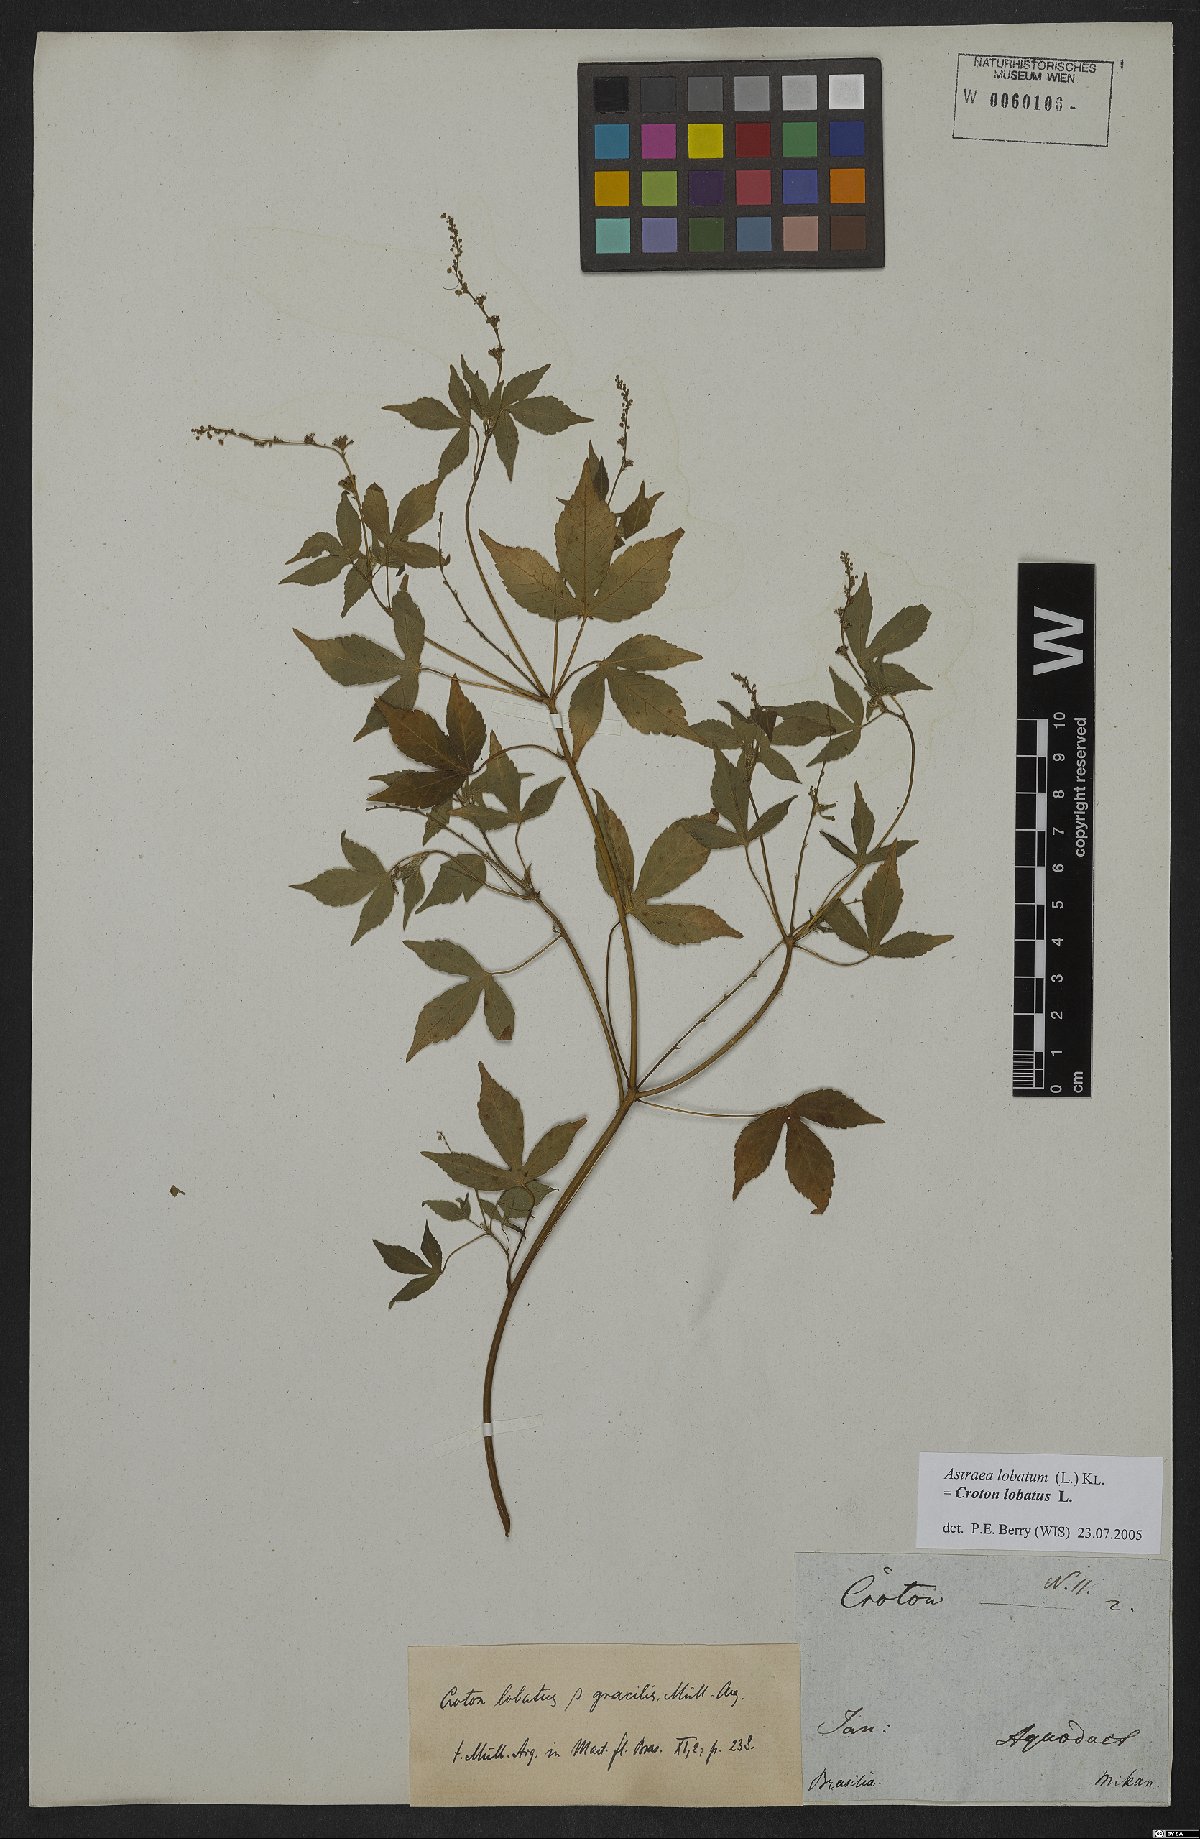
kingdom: Plantae
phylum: Tracheophyta
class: Magnoliopsida
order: Malpighiales
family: Euphorbiaceae
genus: Croton
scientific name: Croton lobatus
